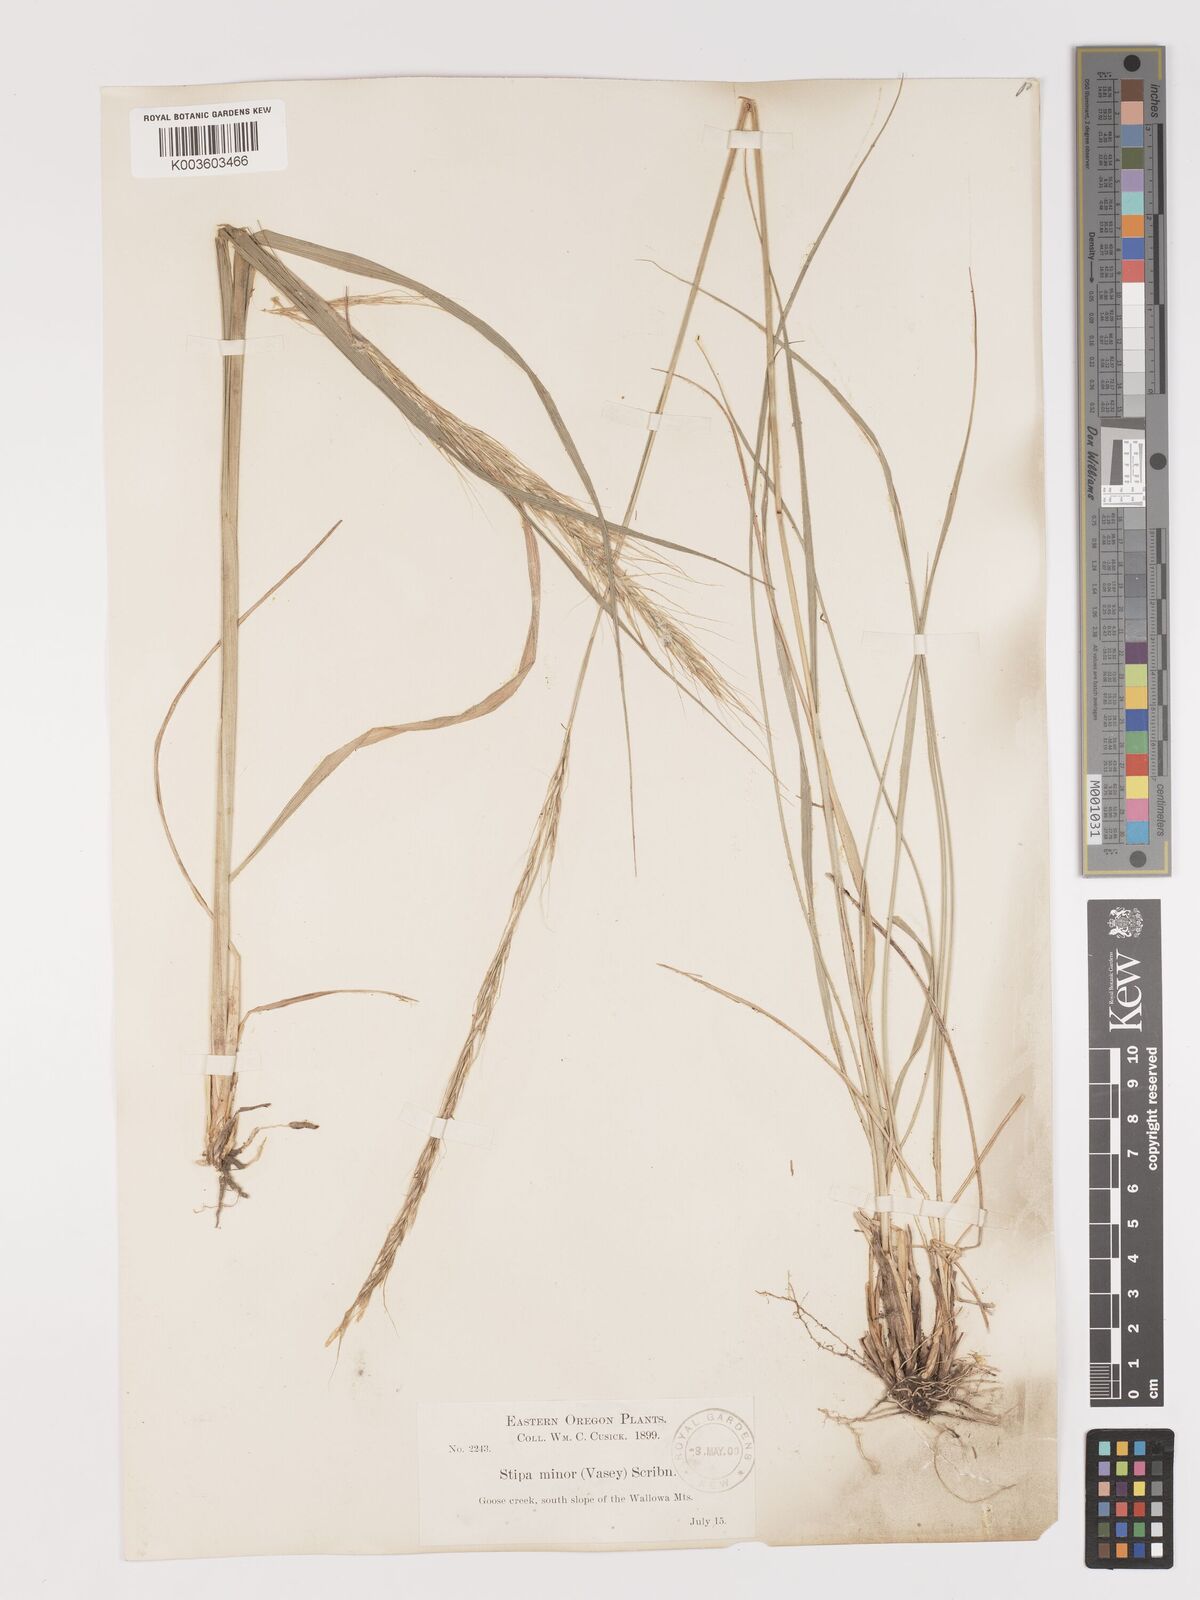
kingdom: Plantae
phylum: Tracheophyta
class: Liliopsida
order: Poales
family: Poaceae
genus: Eriocoma
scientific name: Eriocoma nelsonii
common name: Nelson's needlegrass
